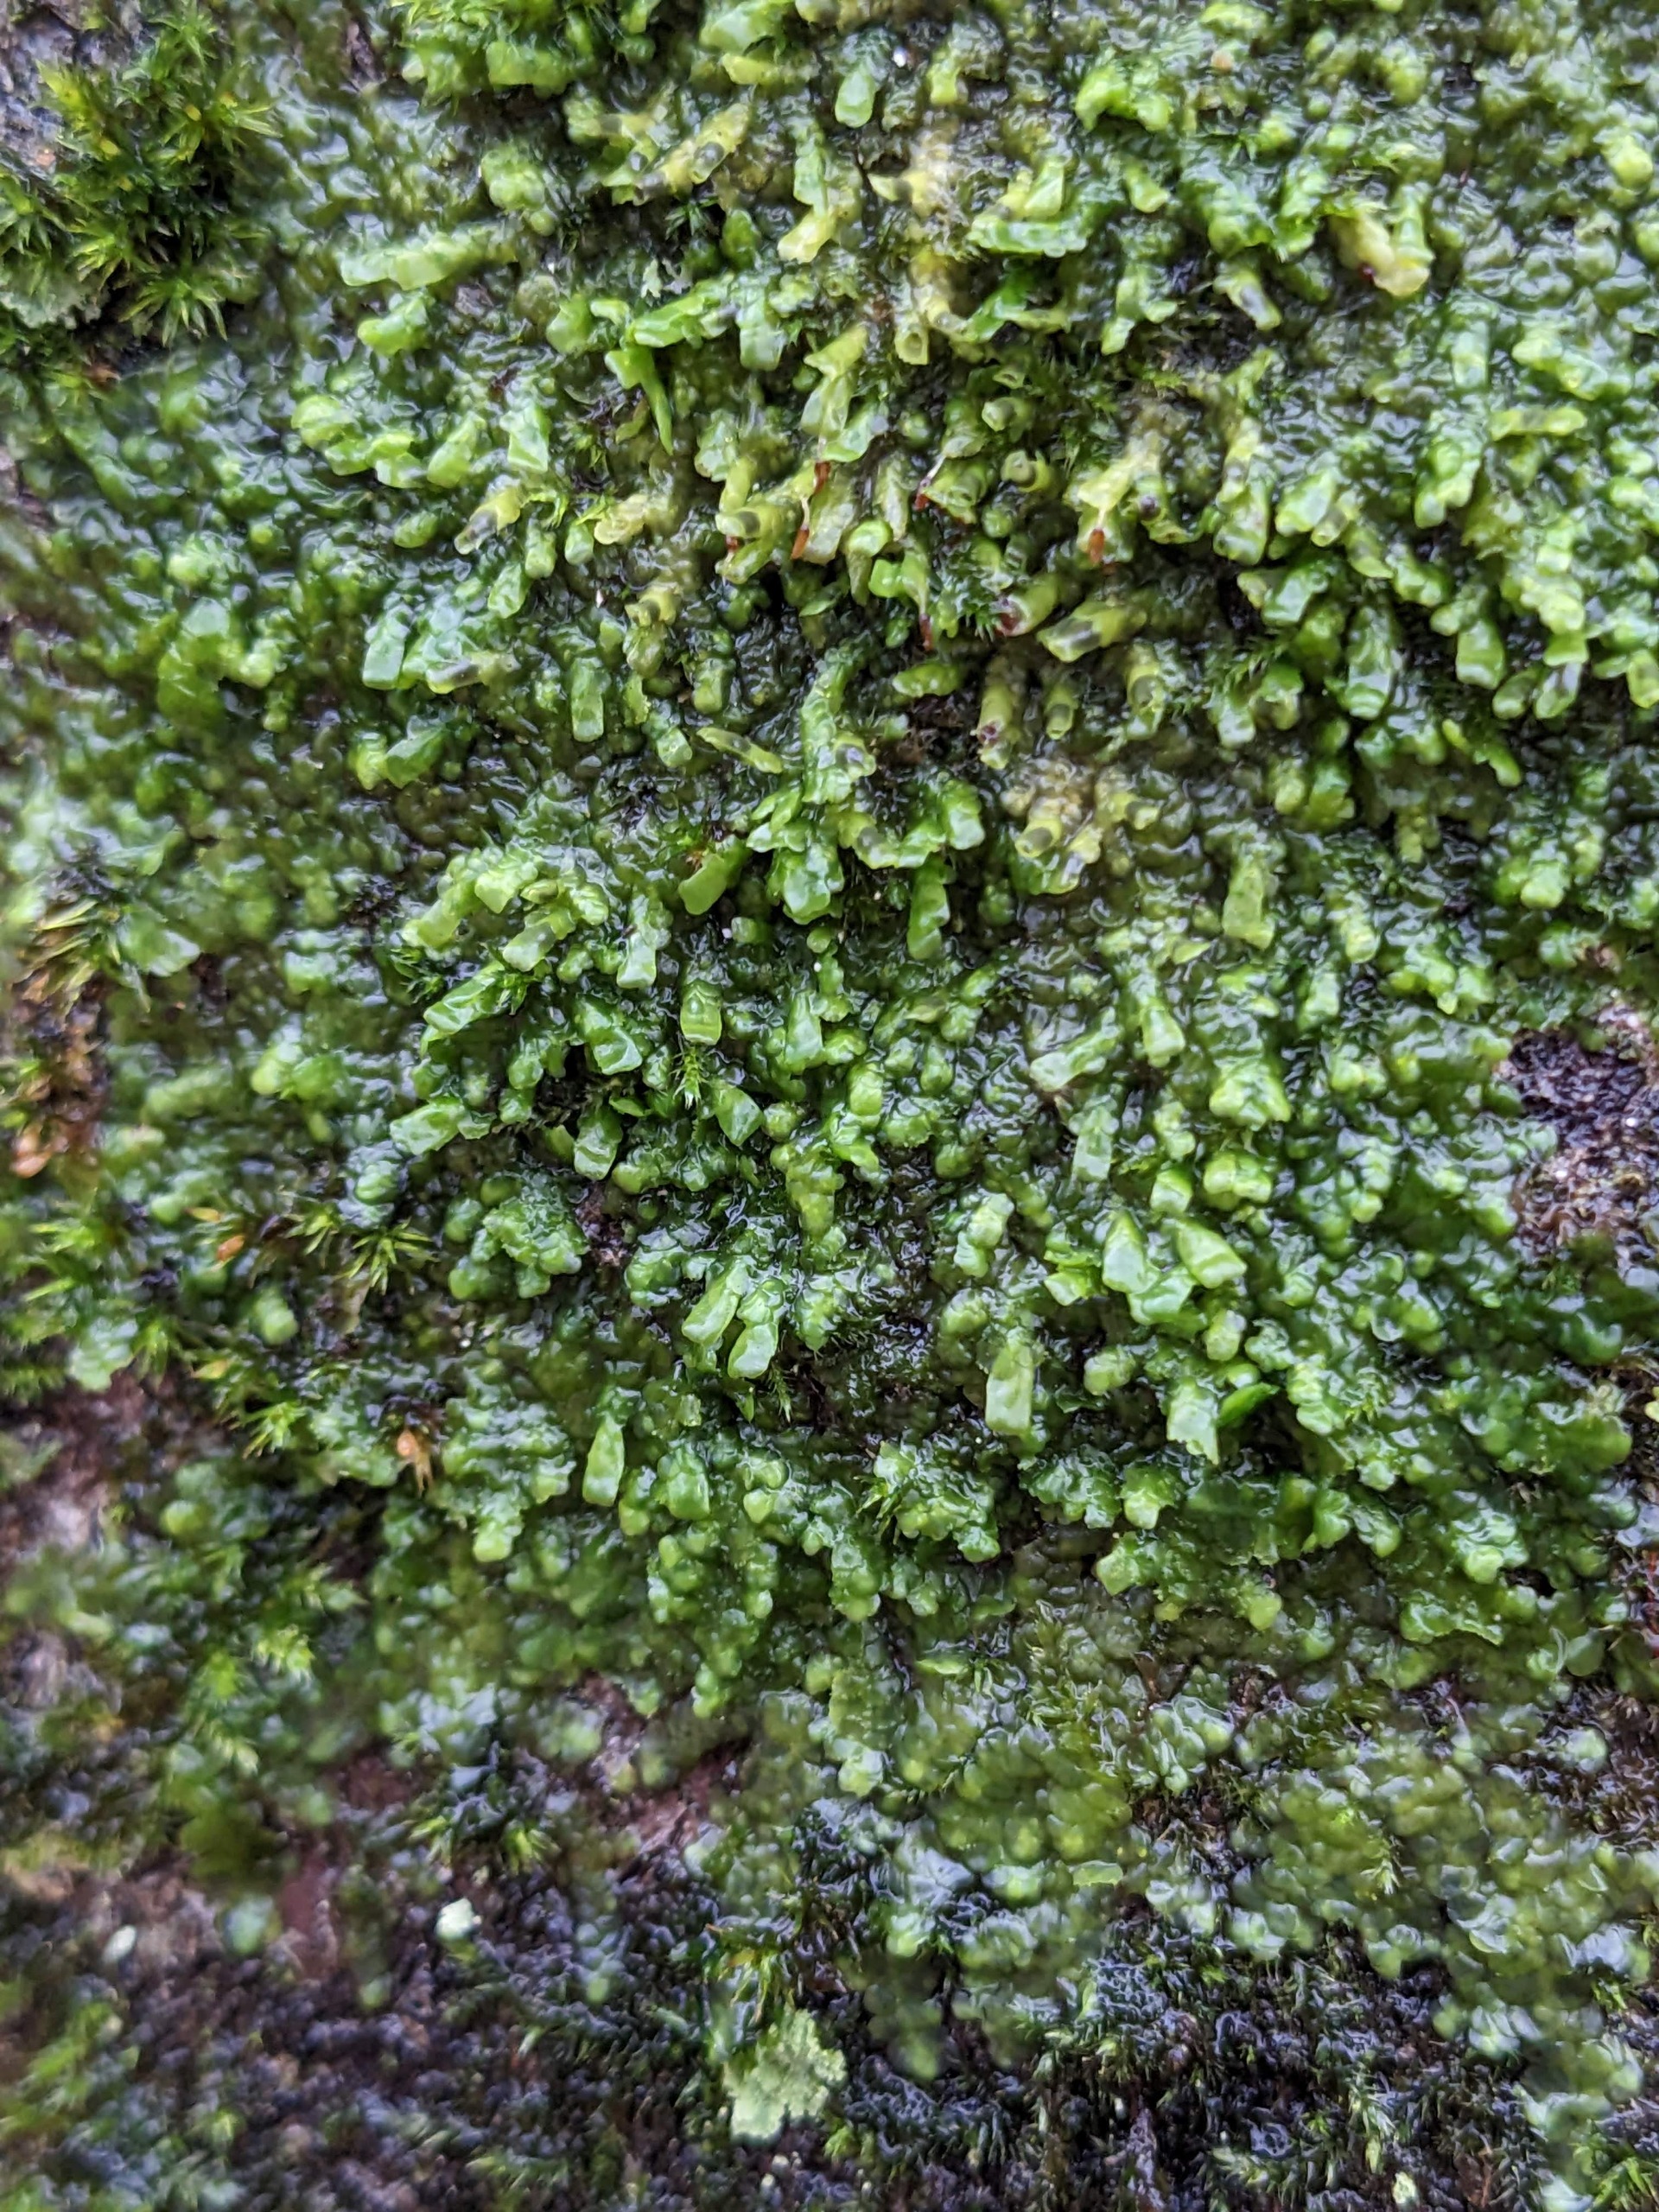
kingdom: Plantae
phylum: Marchantiophyta
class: Jungermanniopsida
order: Porellales
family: Radulaceae
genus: Radula
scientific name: Radula complanata
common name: Almindelig spartelmos
